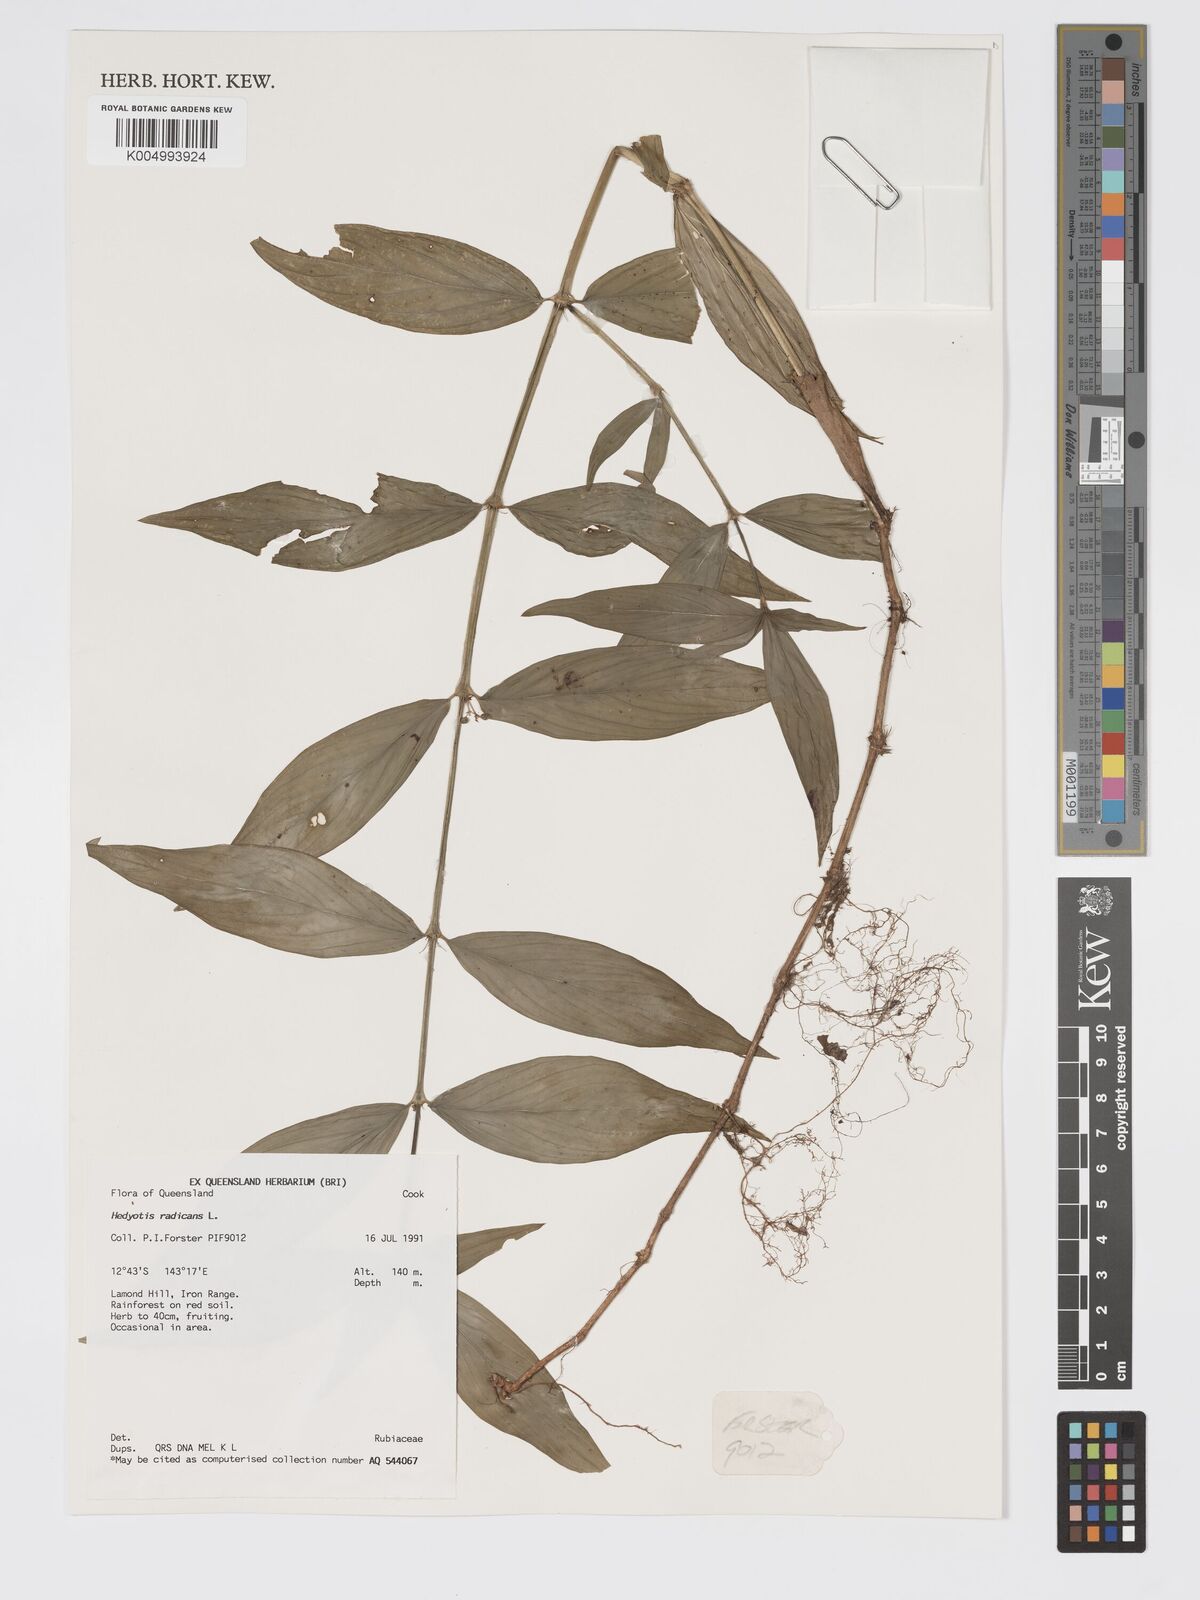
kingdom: Plantae
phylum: Tracheophyta
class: Magnoliopsida
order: Gentianales
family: Rubiaceae
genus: Oldenlandia
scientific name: Oldenlandia
